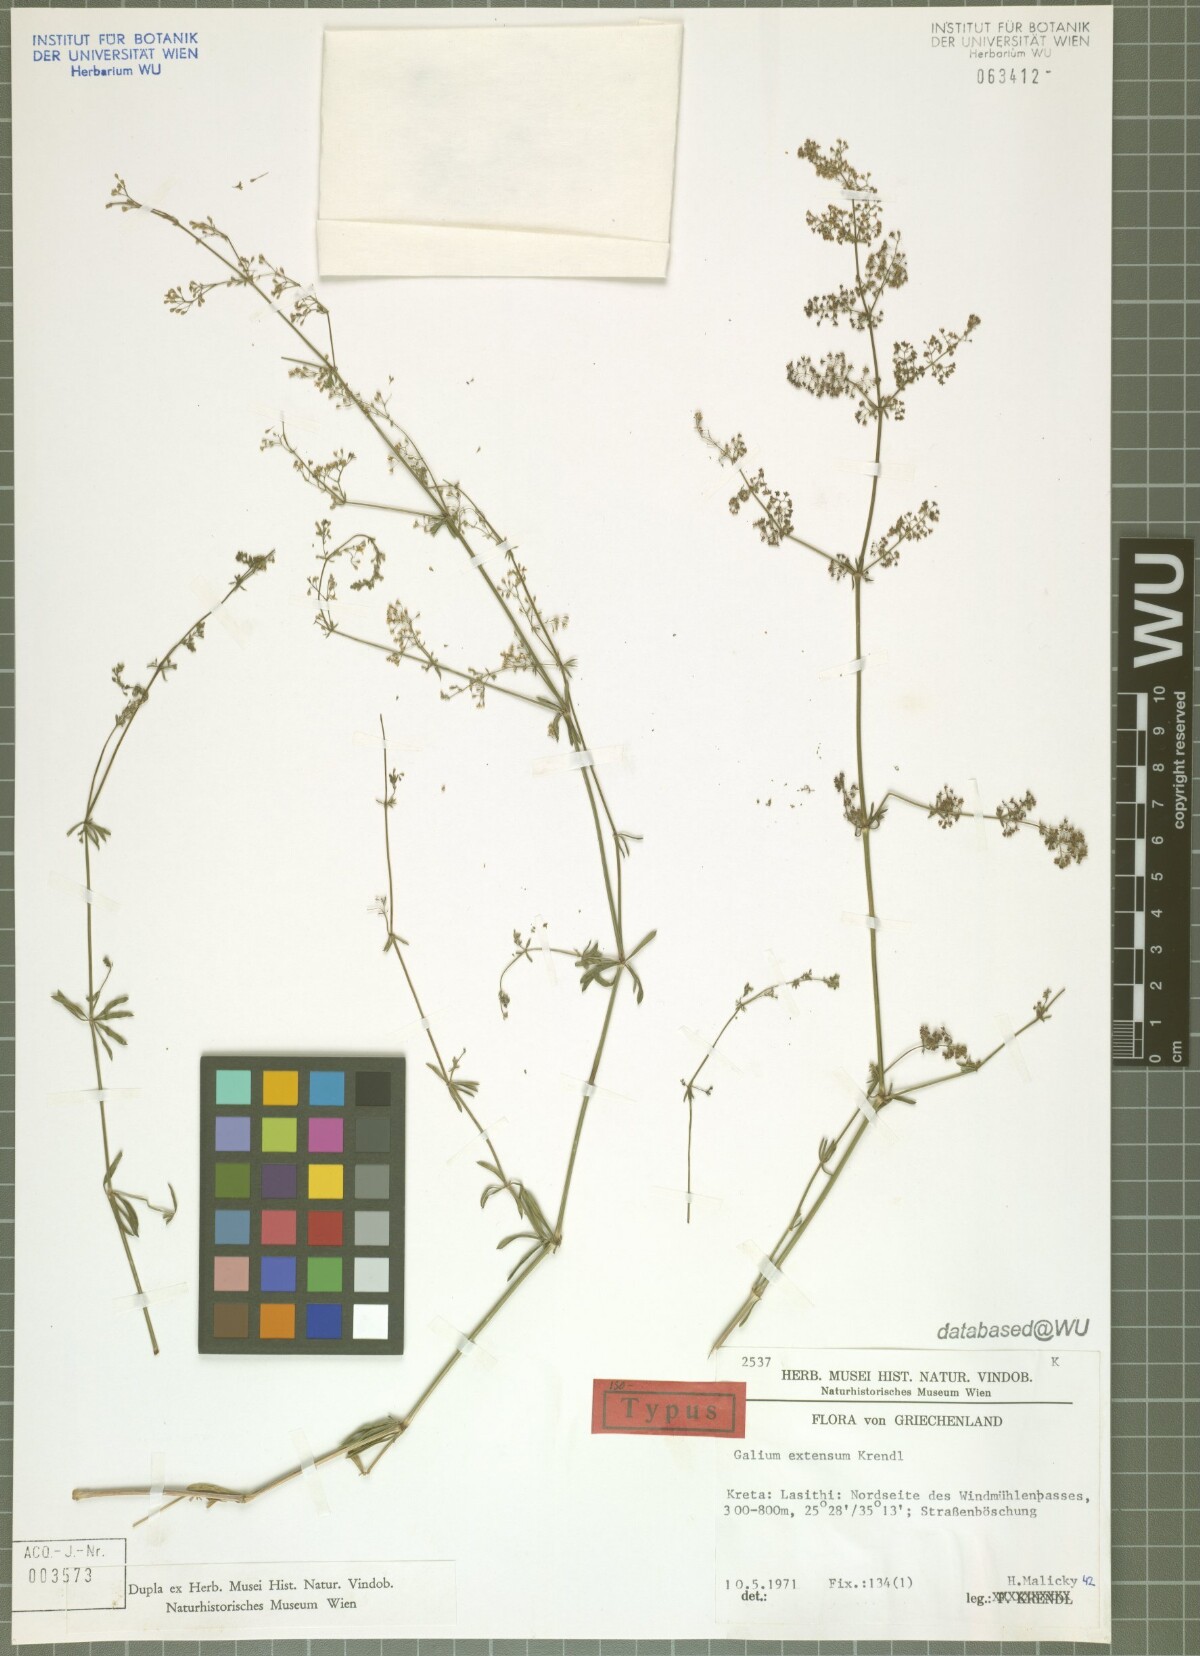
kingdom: Plantae
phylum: Tracheophyta
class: Magnoliopsida
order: Gentianales
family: Rubiaceae
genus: Galium
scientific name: Galium extensum
